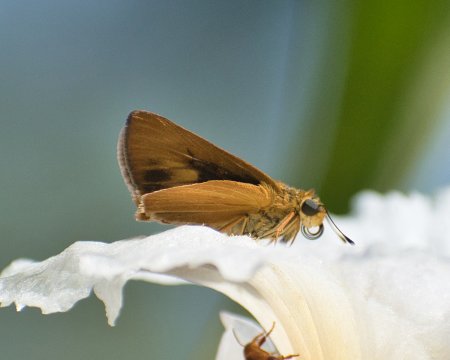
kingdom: Animalia
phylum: Arthropoda
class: Insecta
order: Lepidoptera
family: Hesperiidae
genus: Anthoptus
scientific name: Anthoptus epictetus
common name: Trailside Skipper
